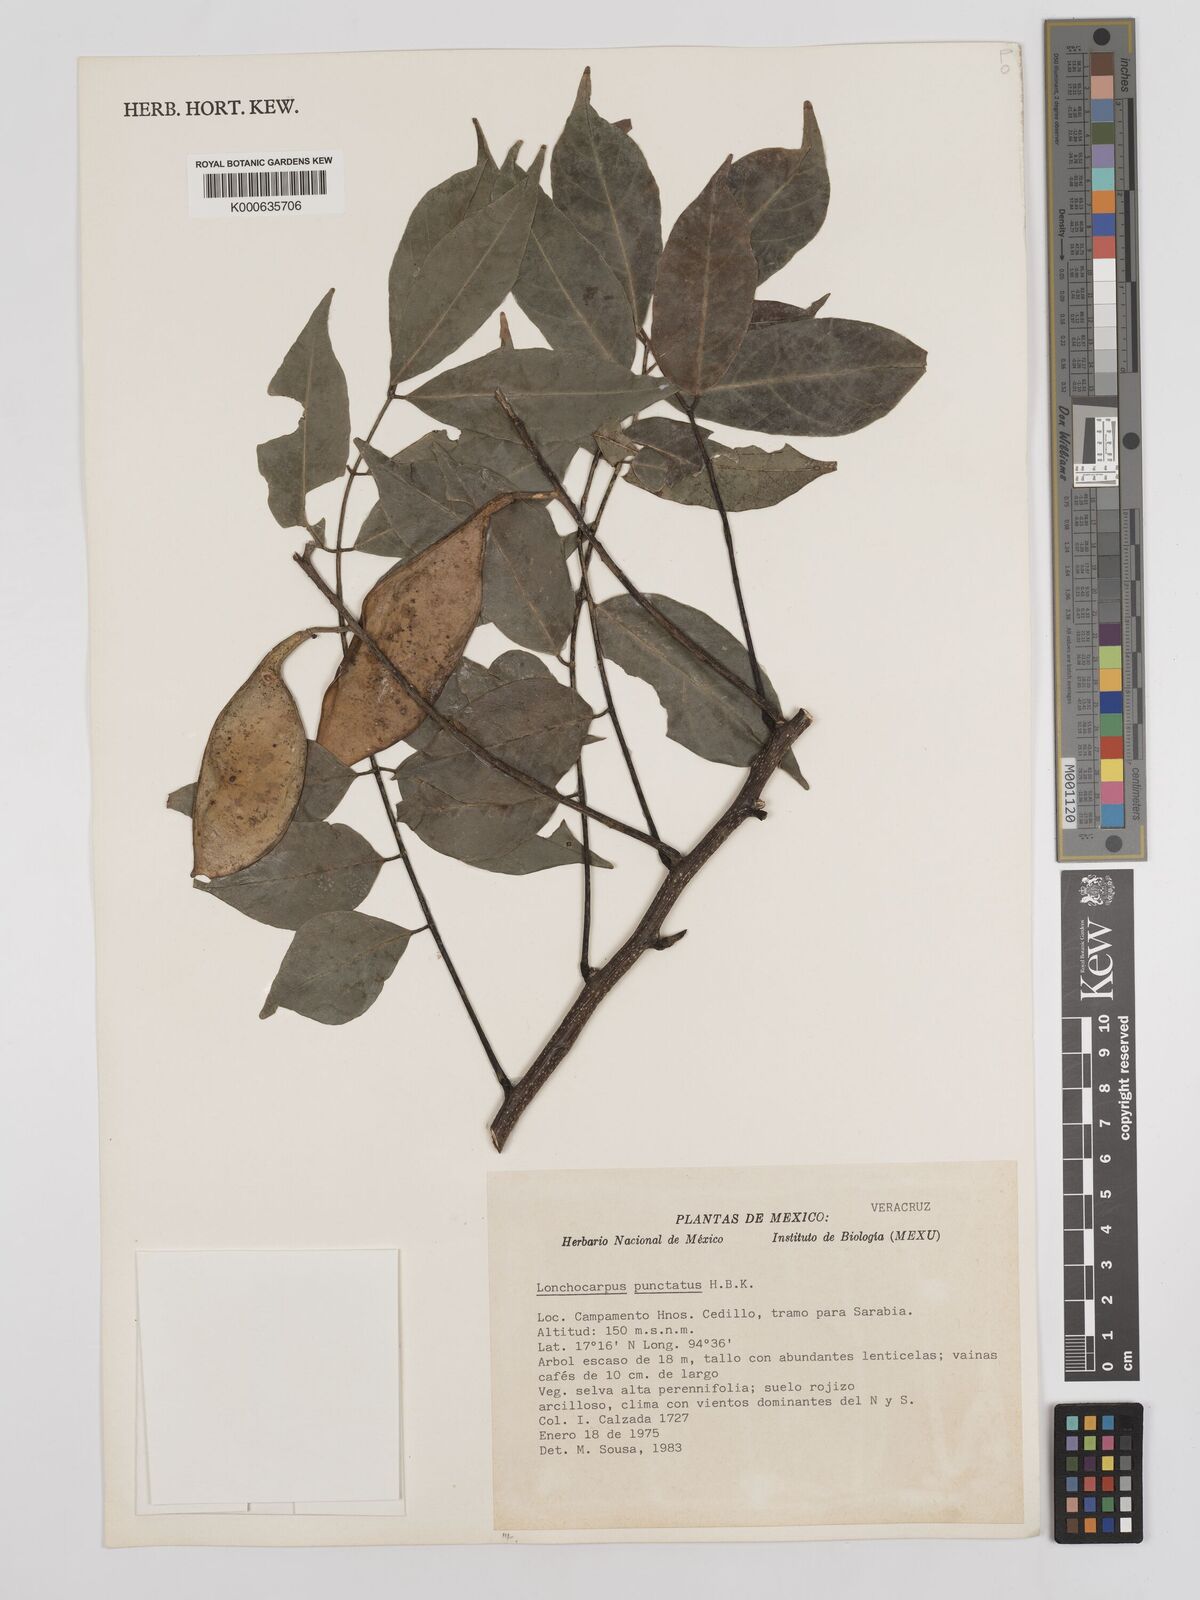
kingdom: Plantae
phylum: Tracheophyta
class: Magnoliopsida
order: Fabales
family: Fabaceae
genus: Lonchocarpus
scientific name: Lonchocarpus punctatus
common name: Dotted lancepod
